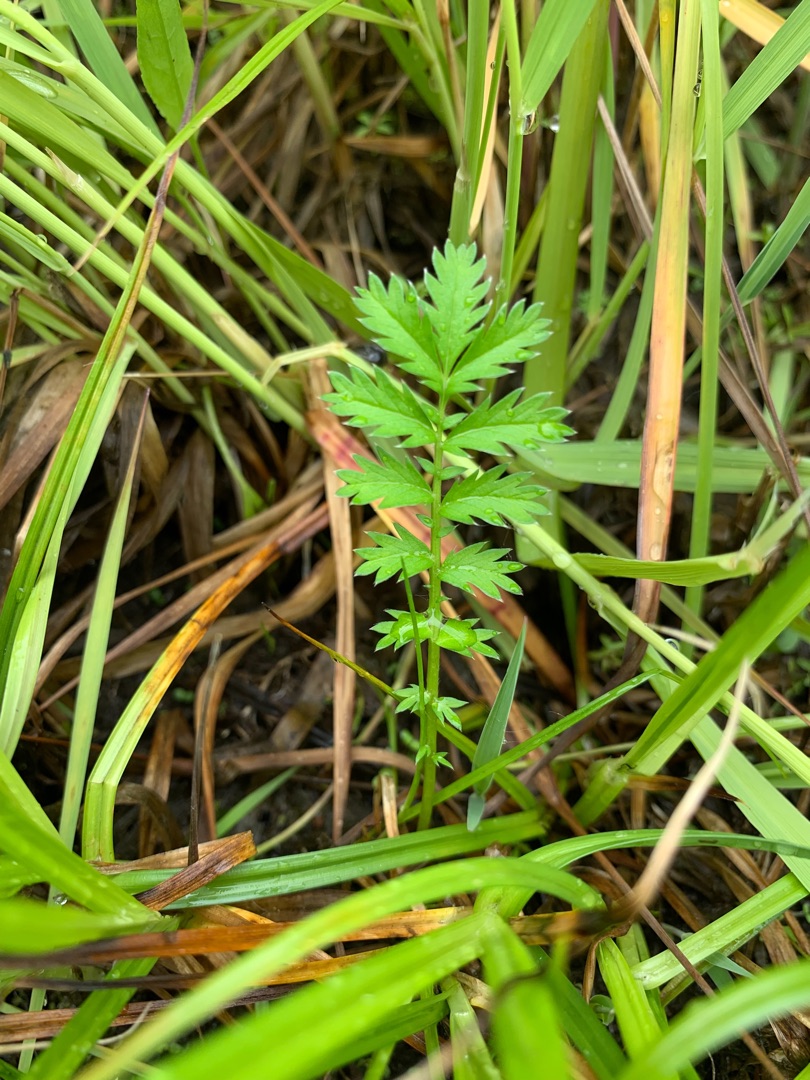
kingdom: Plantae
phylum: Tracheophyta
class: Magnoliopsida
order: Rosales
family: Rosaceae
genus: Argentina
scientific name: Argentina anserina
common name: Gåsepotentil
